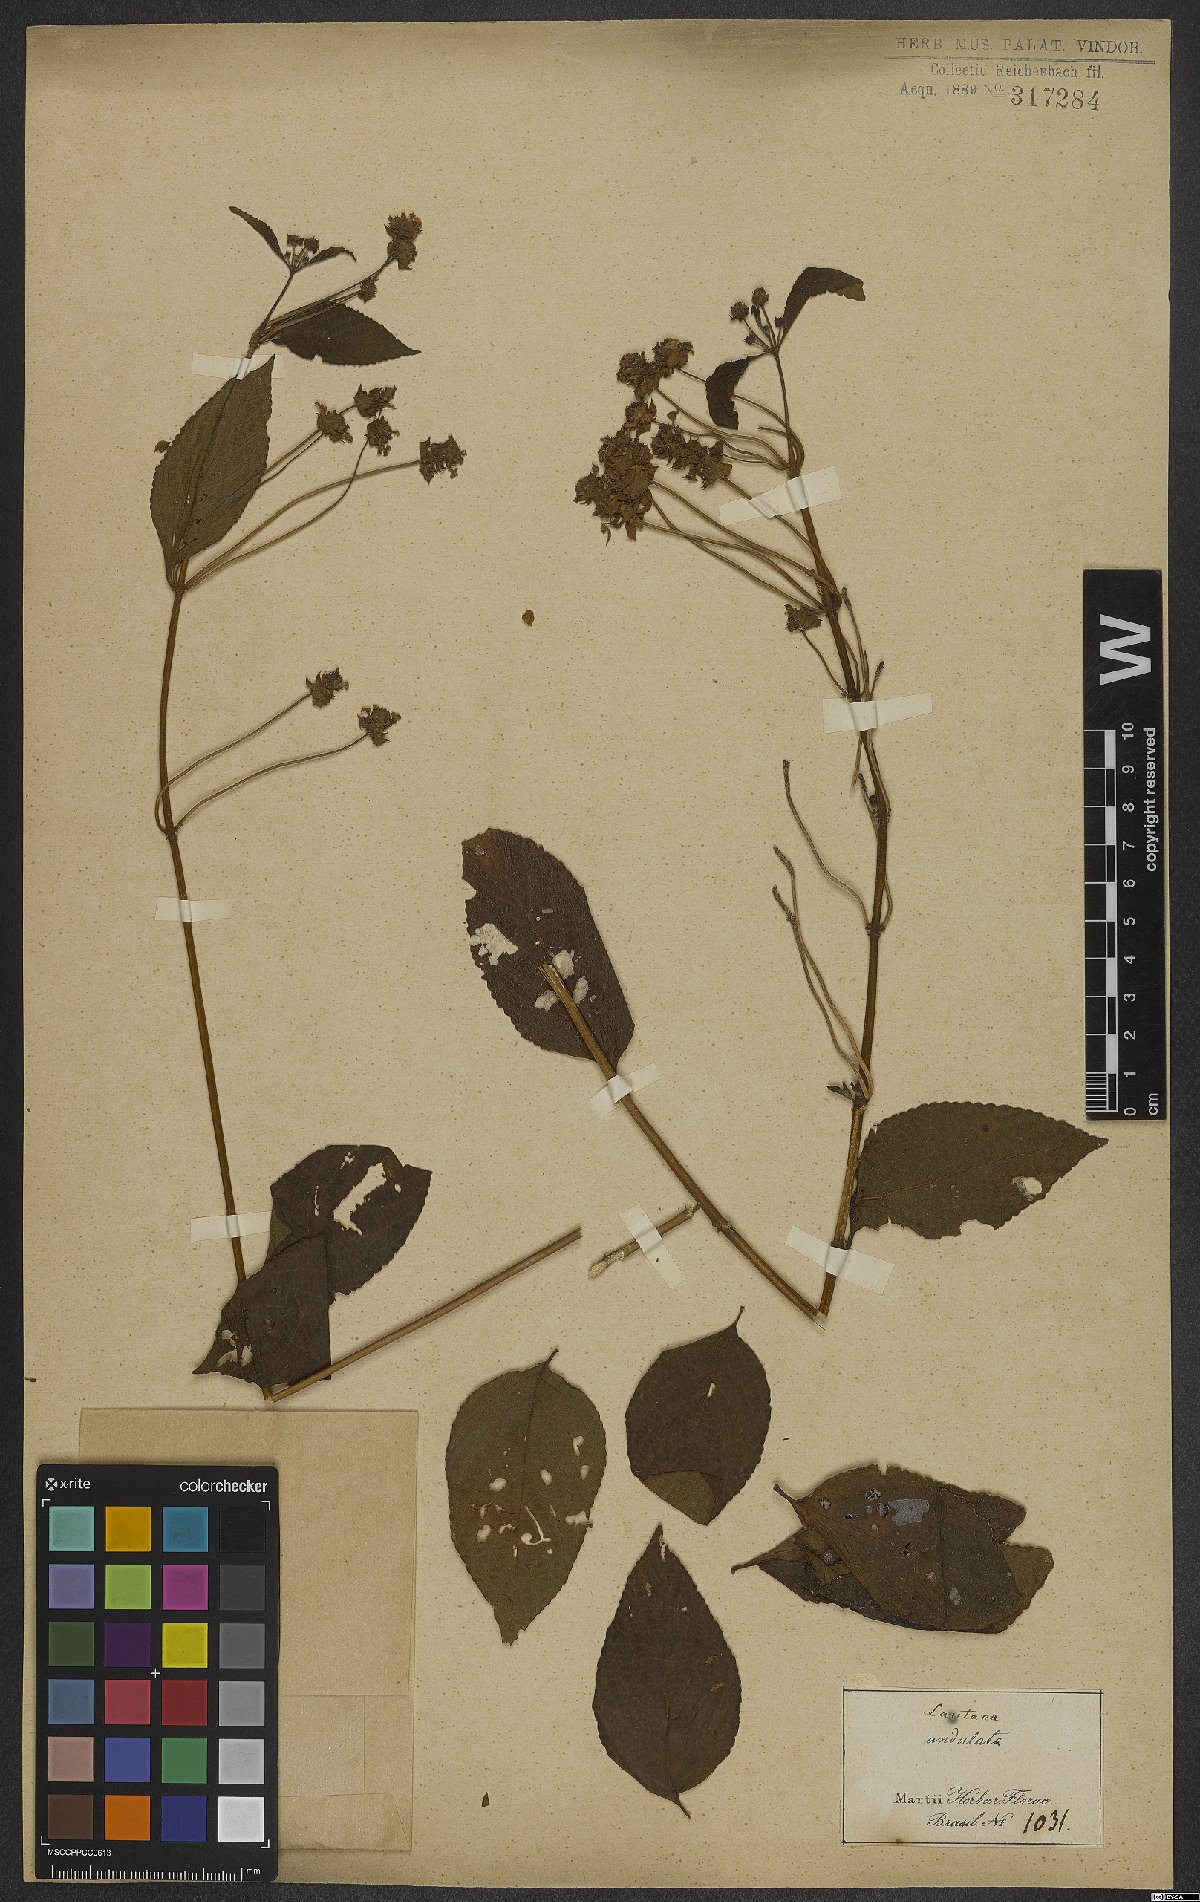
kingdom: Plantae
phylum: Tracheophyta
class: Magnoliopsida
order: Lamiales
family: Verbenaceae
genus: Lantana
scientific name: Lantana undulata
